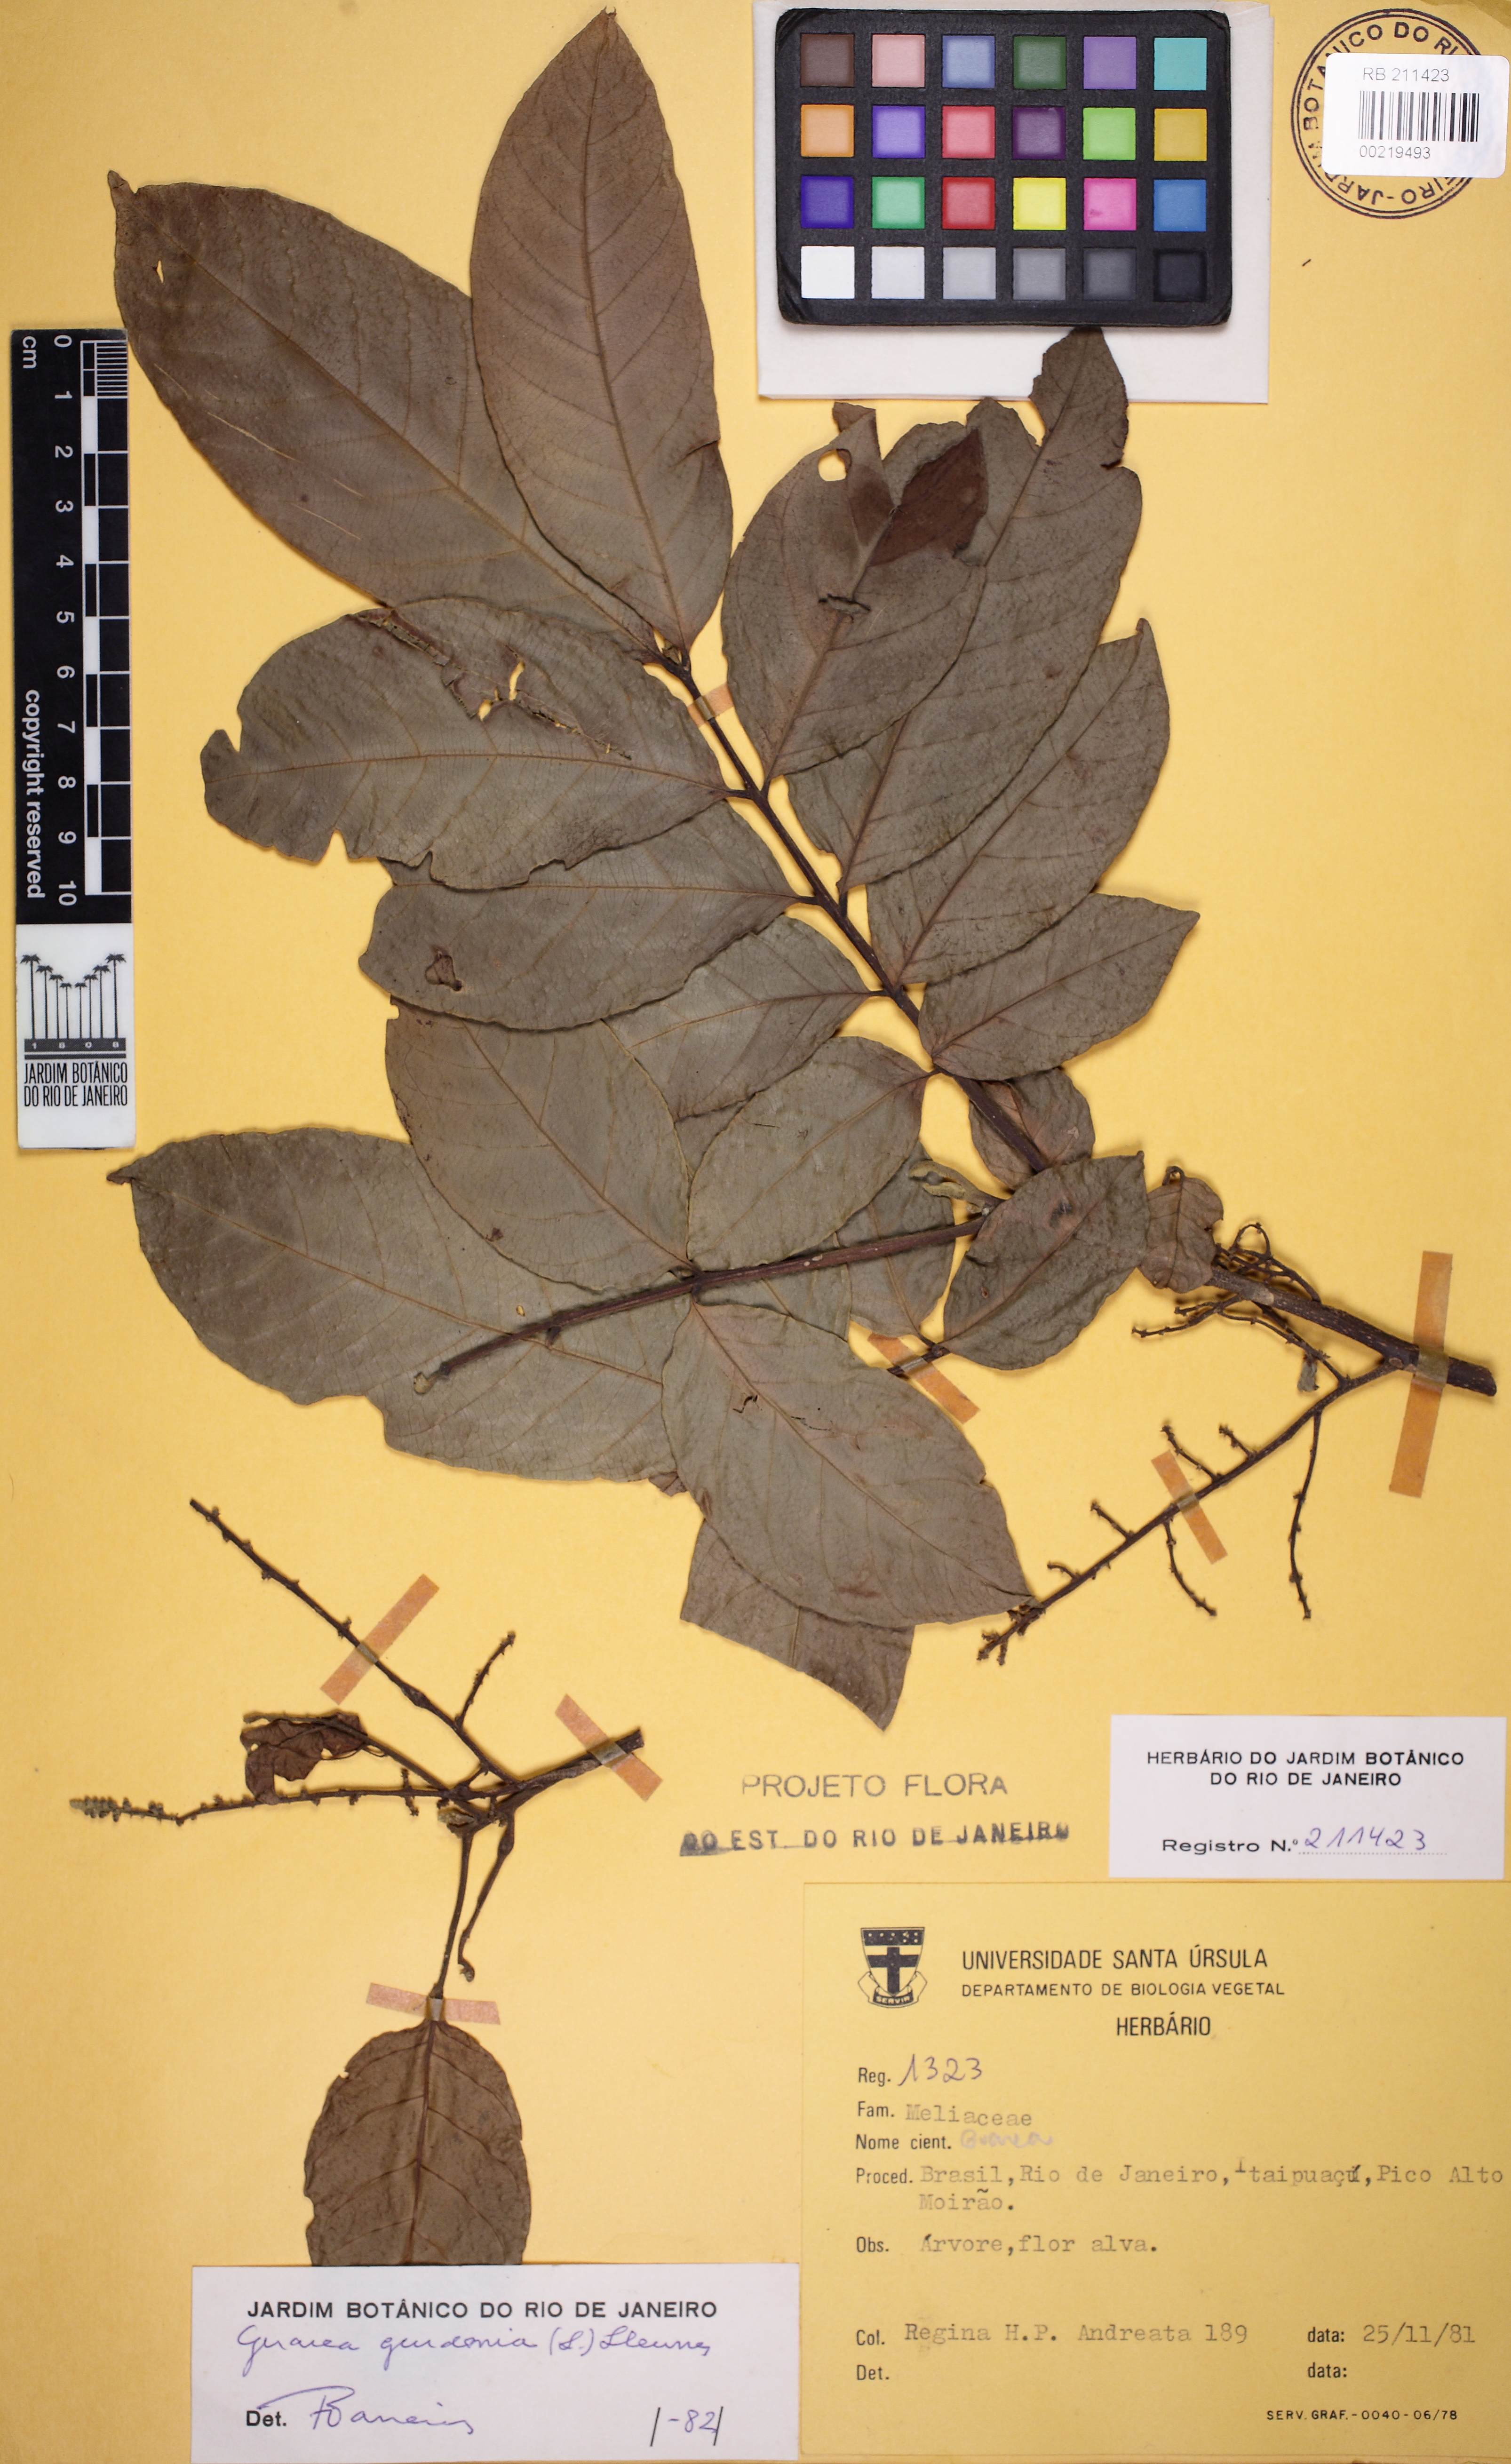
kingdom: Plantae
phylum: Tracheophyta
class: Magnoliopsida
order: Sapindales
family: Meliaceae
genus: Guarea
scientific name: Guarea guidonia
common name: American muskwood
